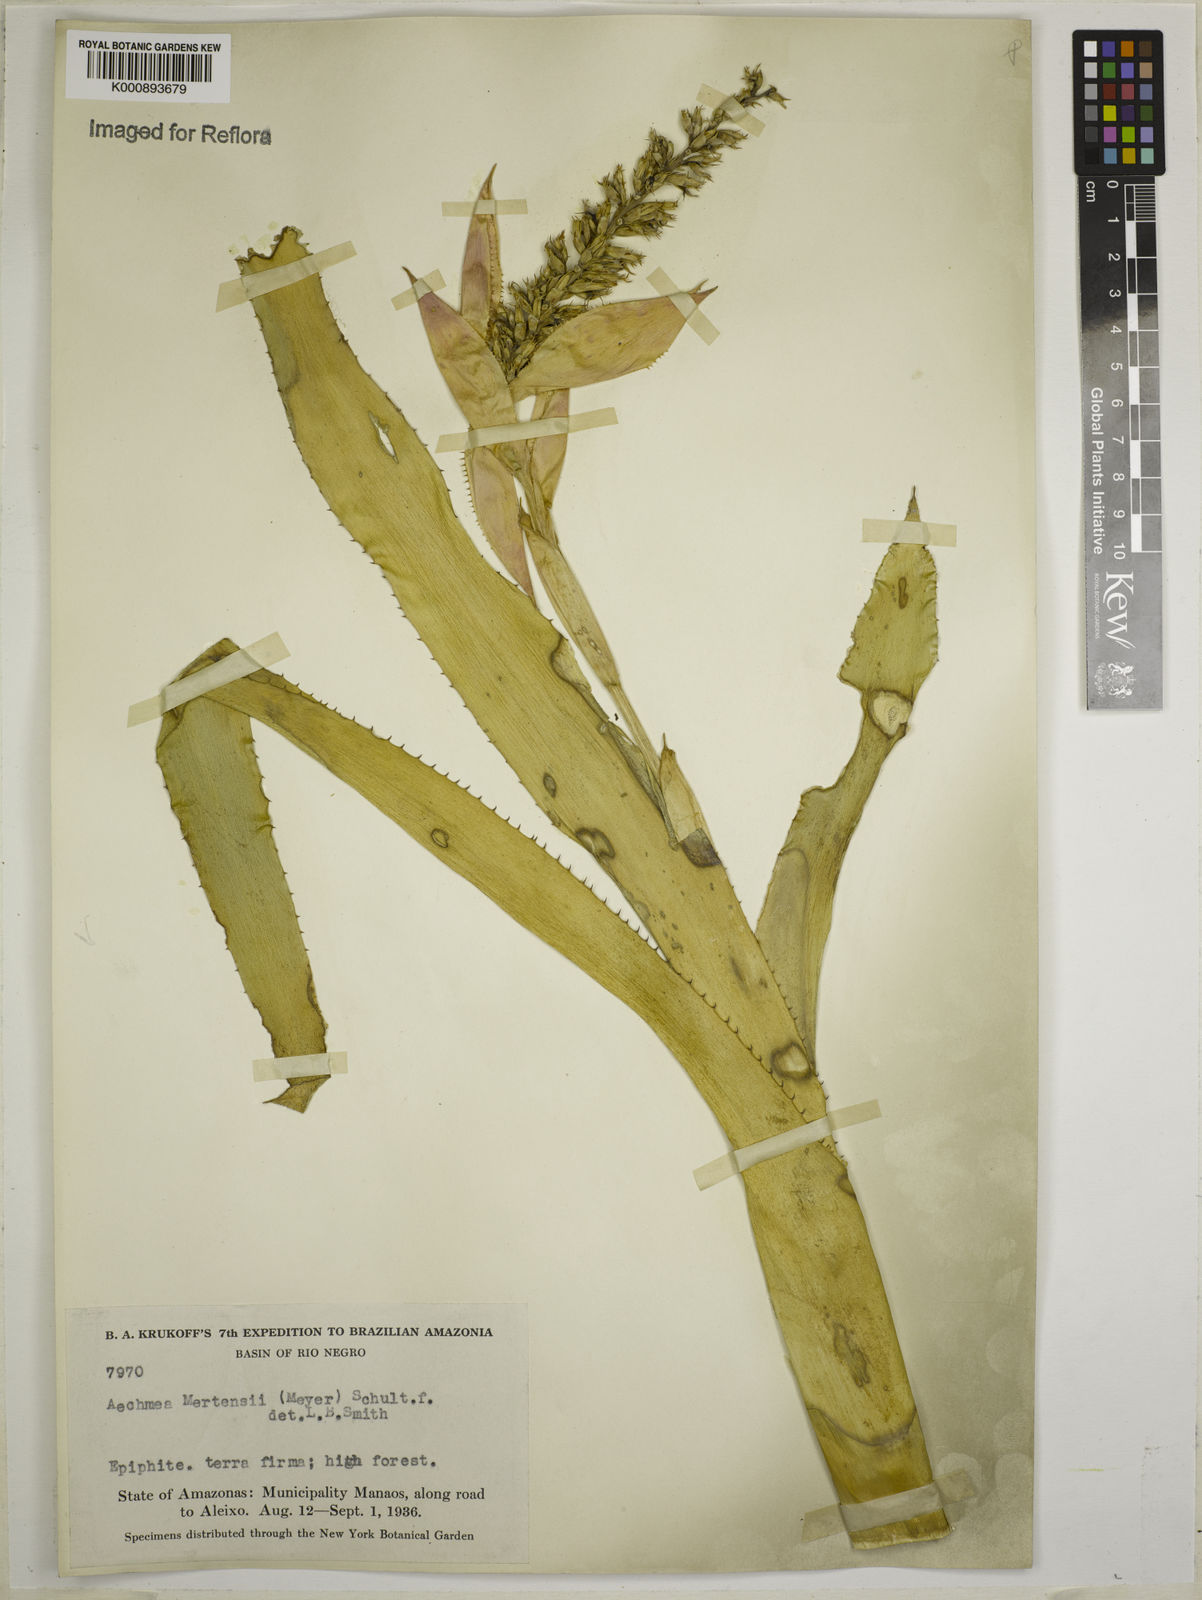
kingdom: Plantae
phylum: Tracheophyta
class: Liliopsida
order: Poales
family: Bromeliaceae
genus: Aechmea
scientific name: Aechmea mertensii
